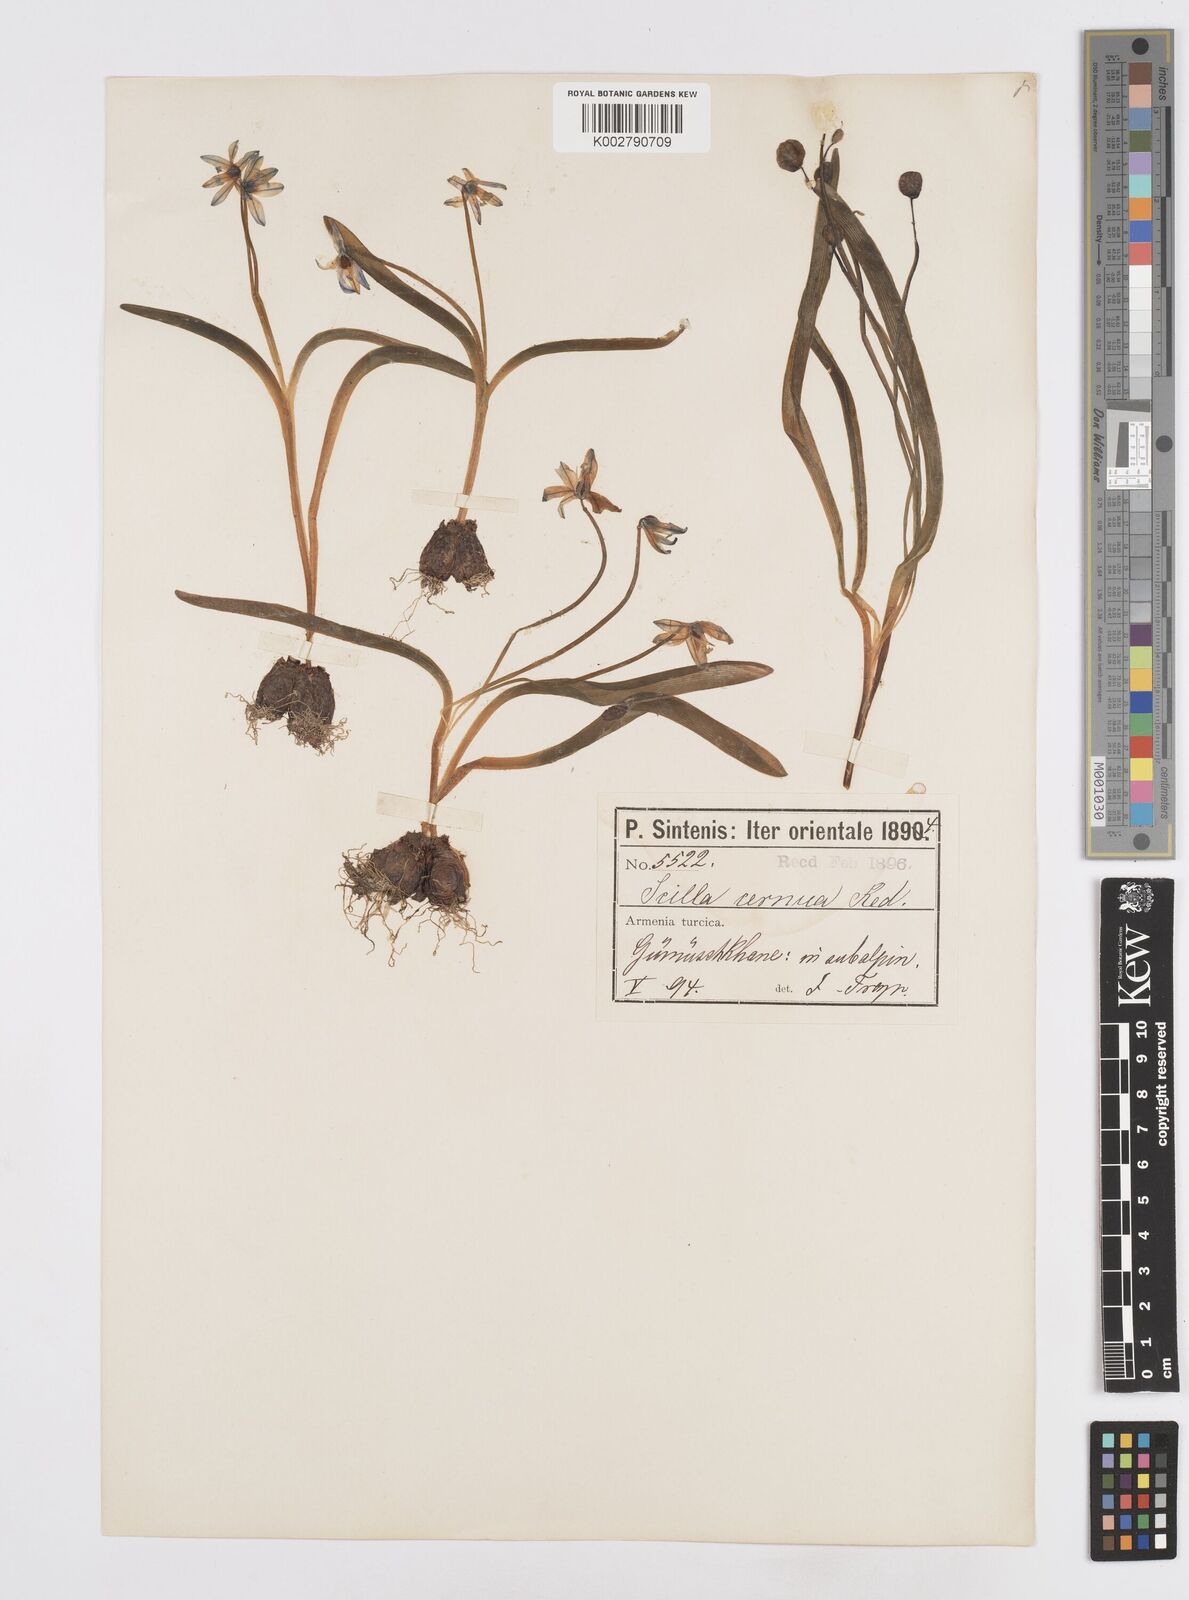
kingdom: Plantae
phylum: Tracheophyta
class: Liliopsida
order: Asparagales
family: Asparagaceae
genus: Scilla
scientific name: Scilla siberica
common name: Siberian squill
